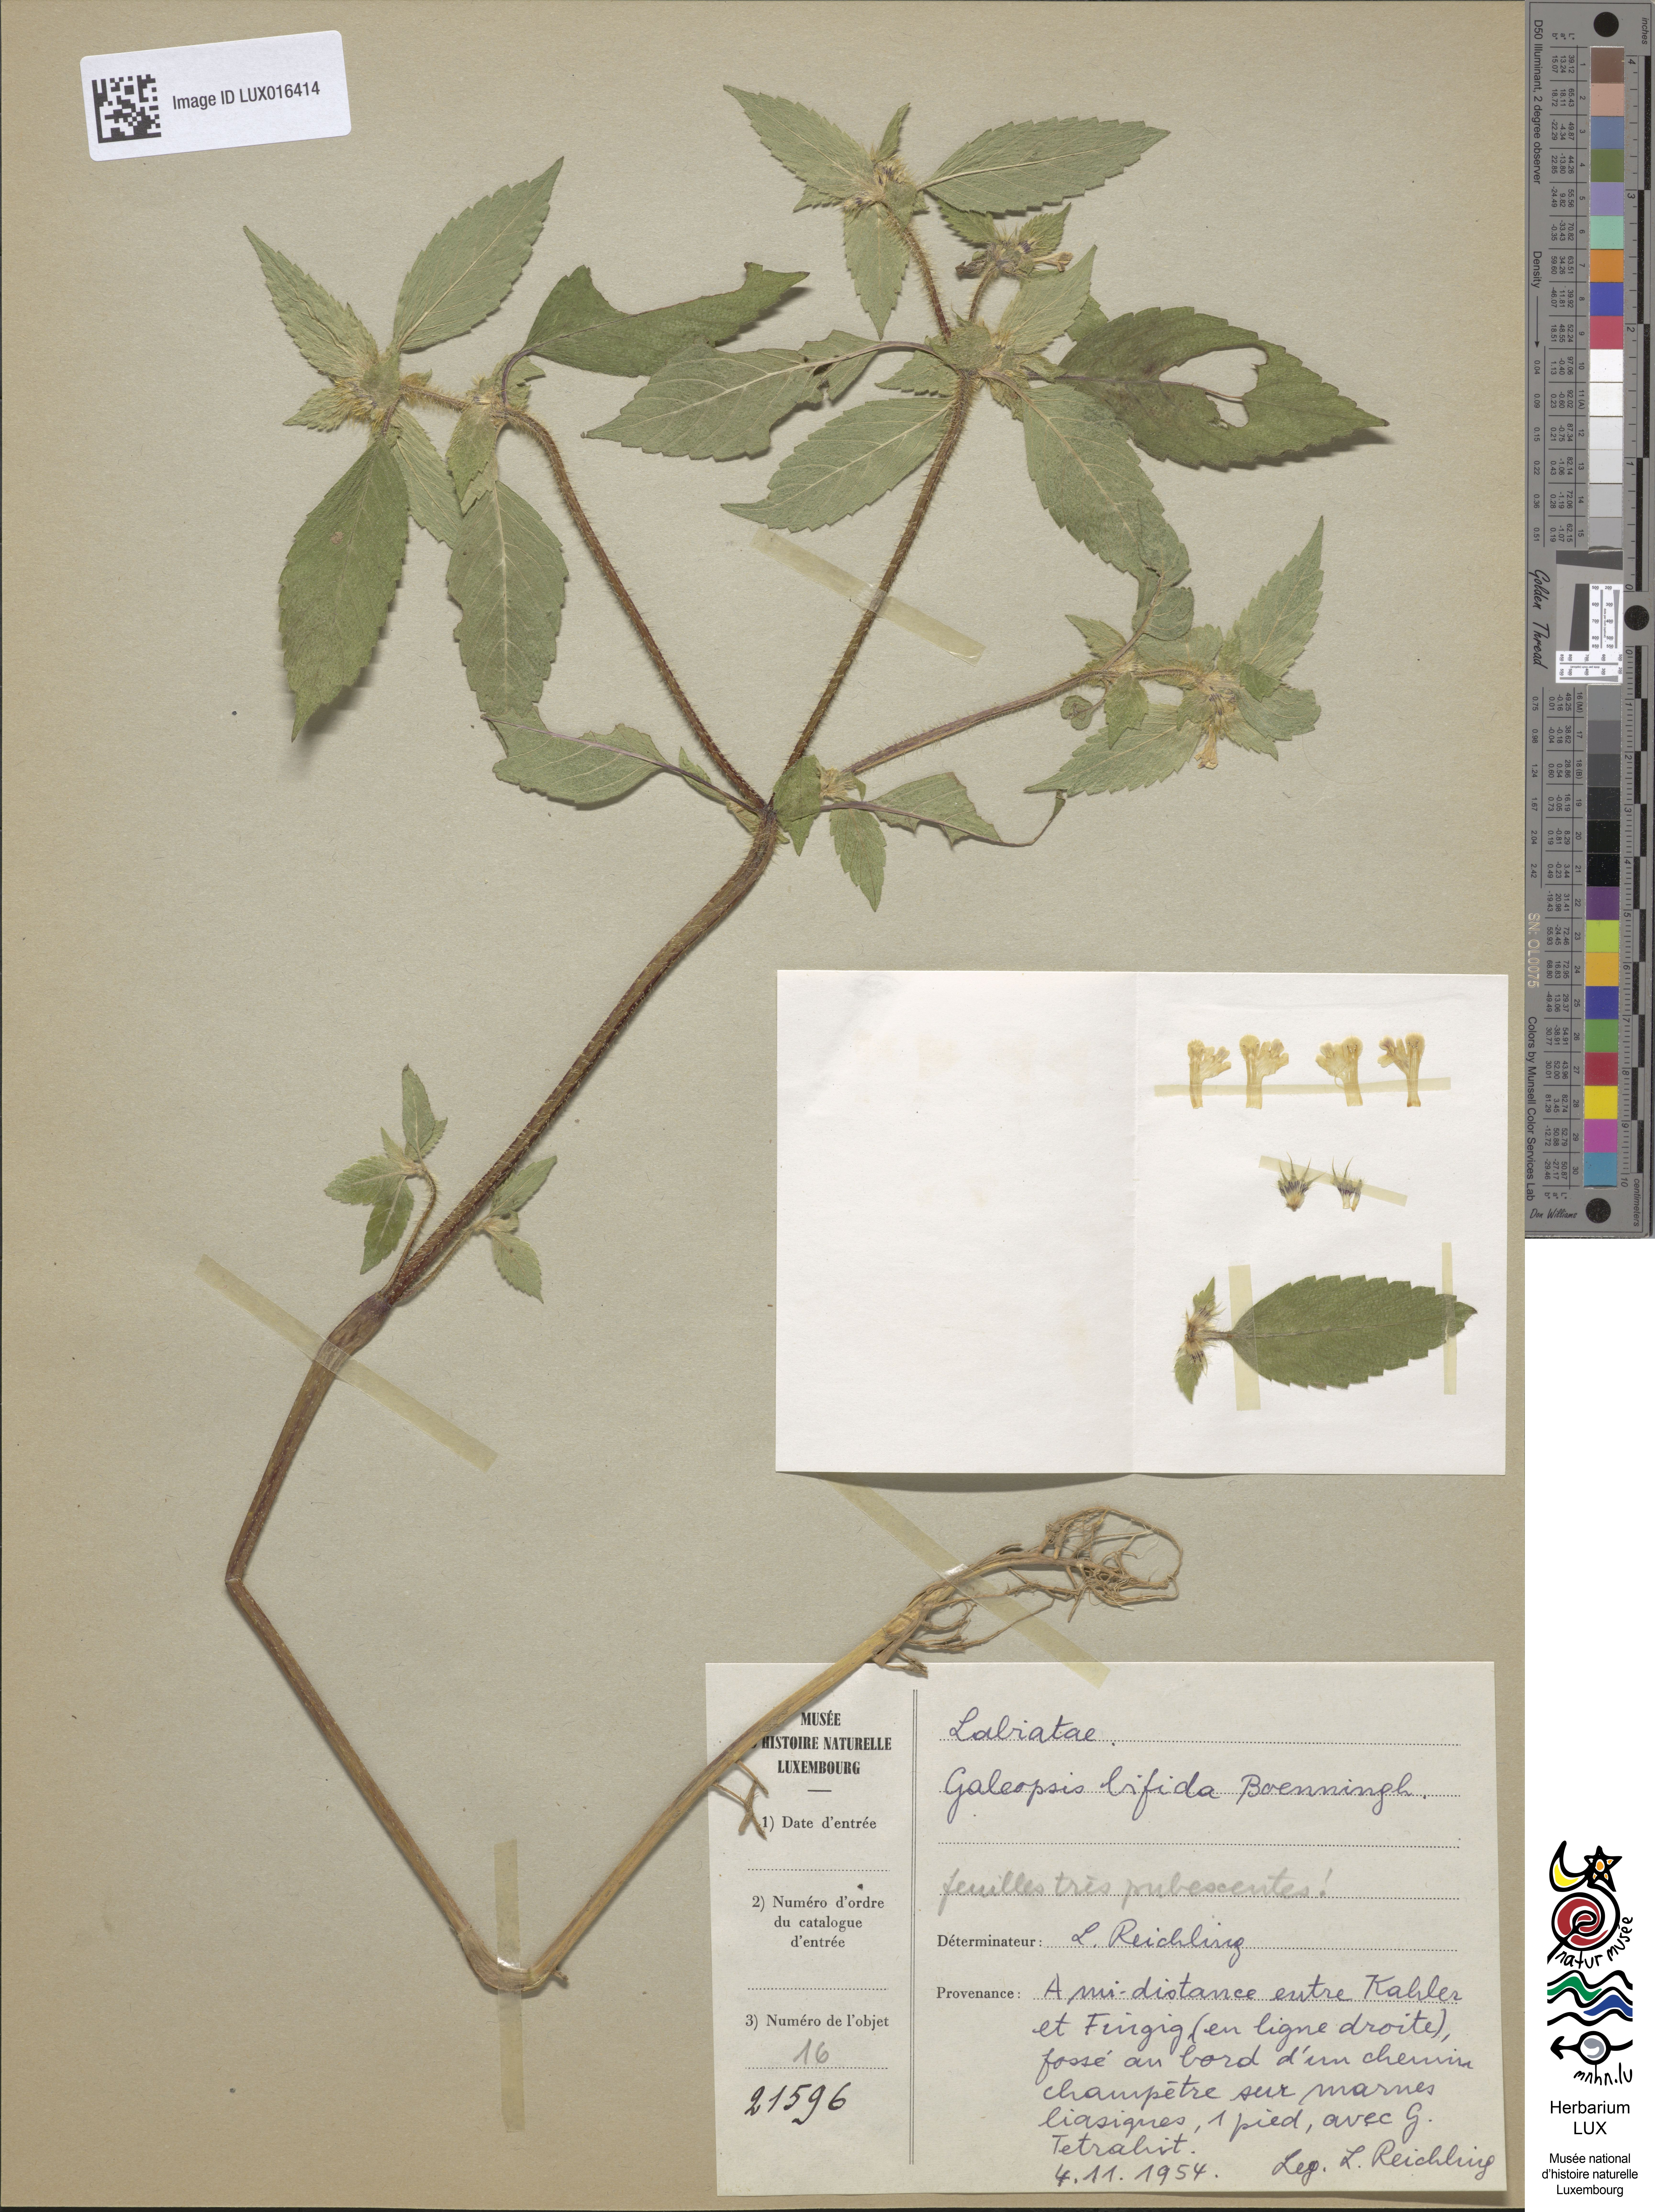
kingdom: Plantae
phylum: Tracheophyta
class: Magnoliopsida
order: Lamiales
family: Lamiaceae
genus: Galeopsis
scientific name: Galeopsis bifida
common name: Bifid hemp-nettle
